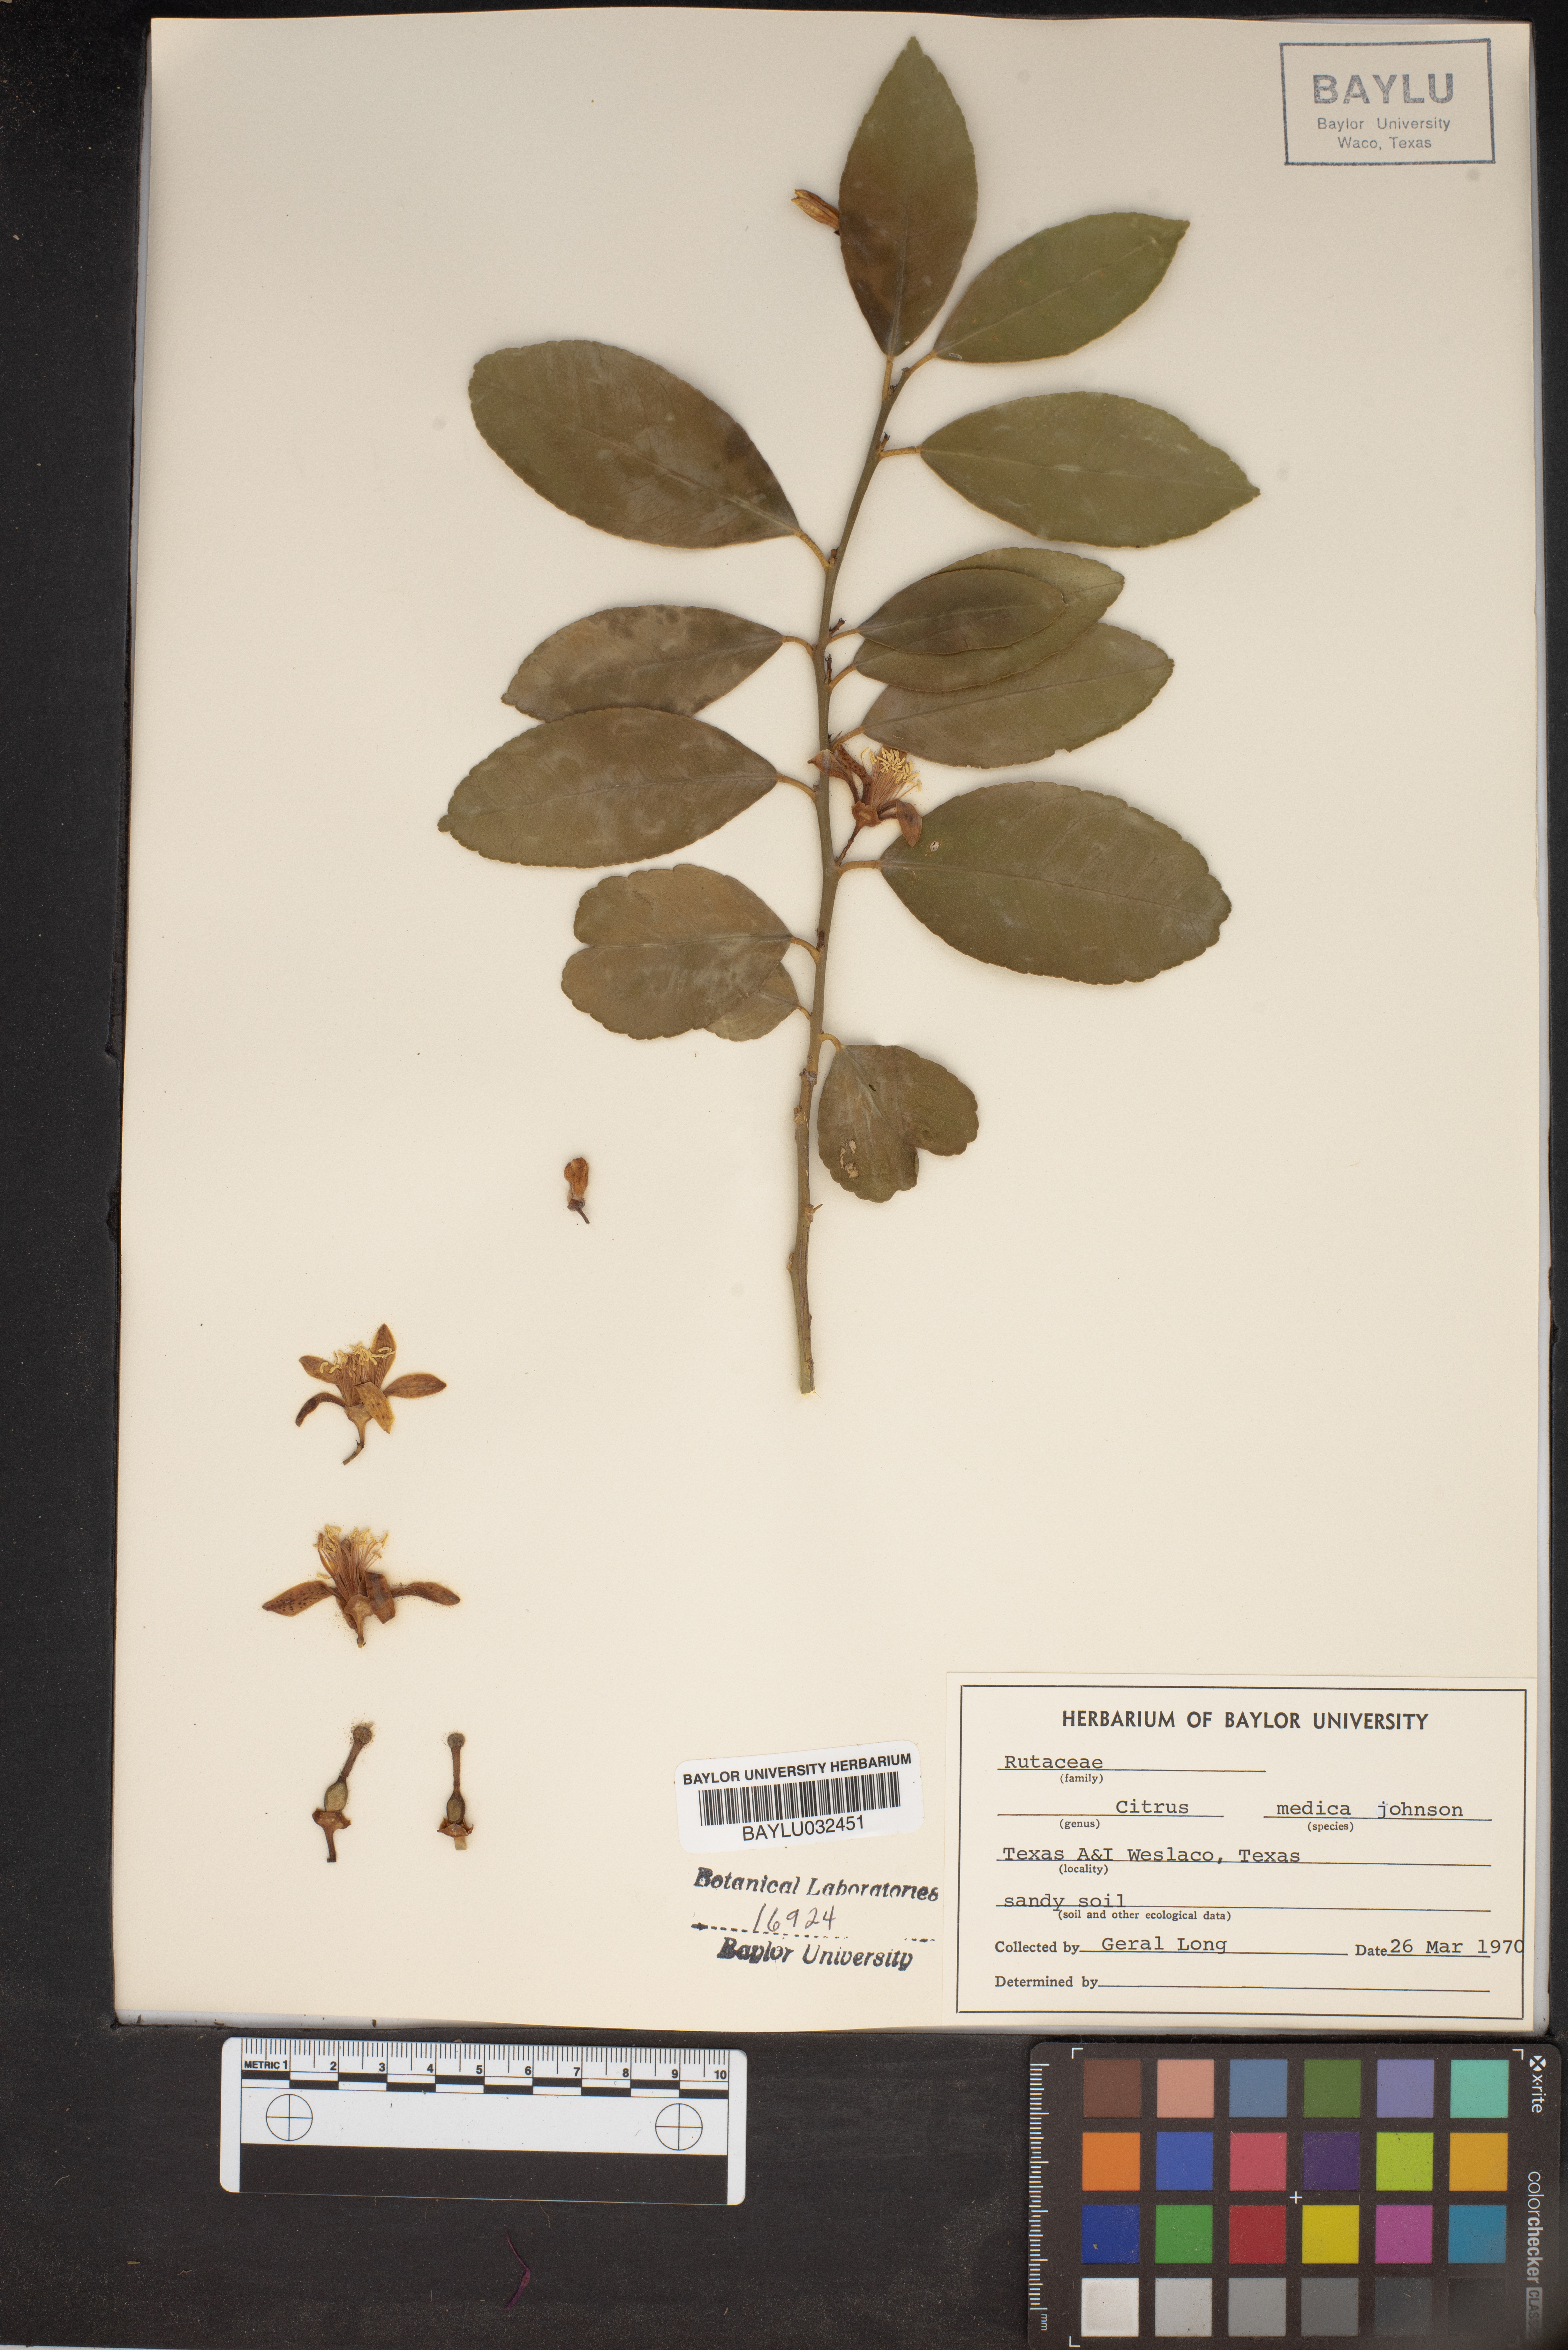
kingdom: Plantae
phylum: Tracheophyta
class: Magnoliopsida
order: Sapindales
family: Rutaceae
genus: Citrus
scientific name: Citrus medica
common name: Citron
